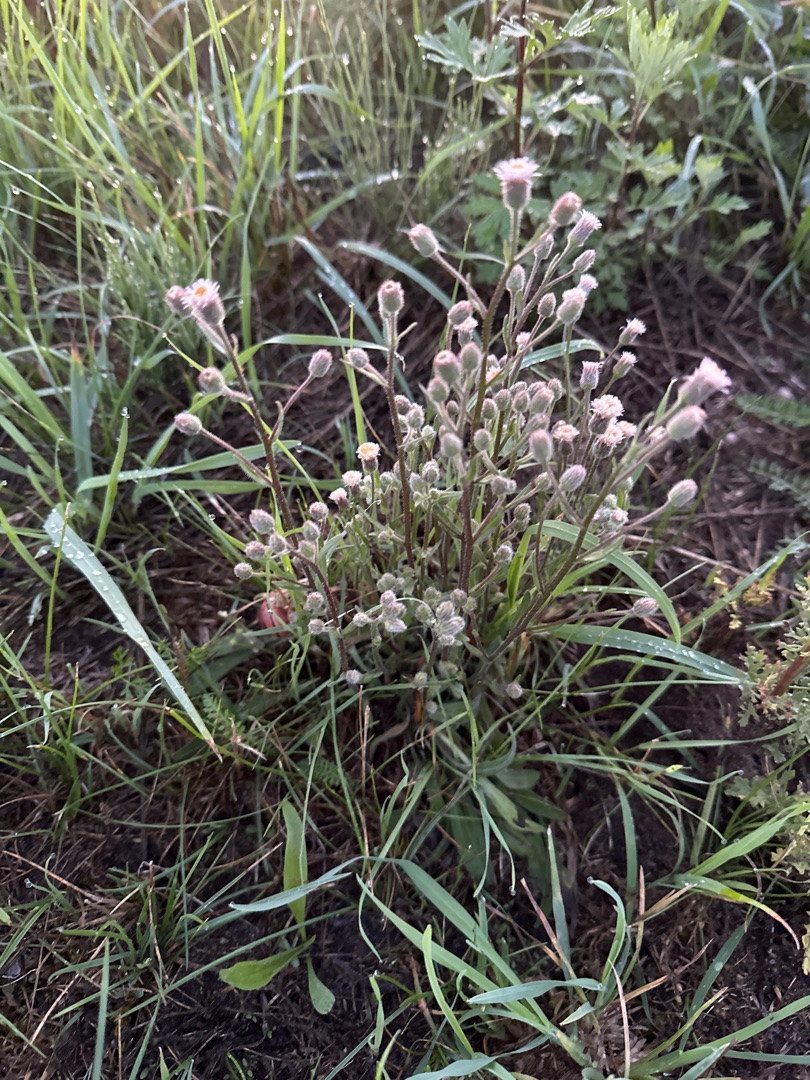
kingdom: Plantae
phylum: Tracheophyta
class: Magnoliopsida
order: Asterales
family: Asteraceae
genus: Erigeron
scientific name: Erigeron acris
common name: Bitter bakkestjerne
